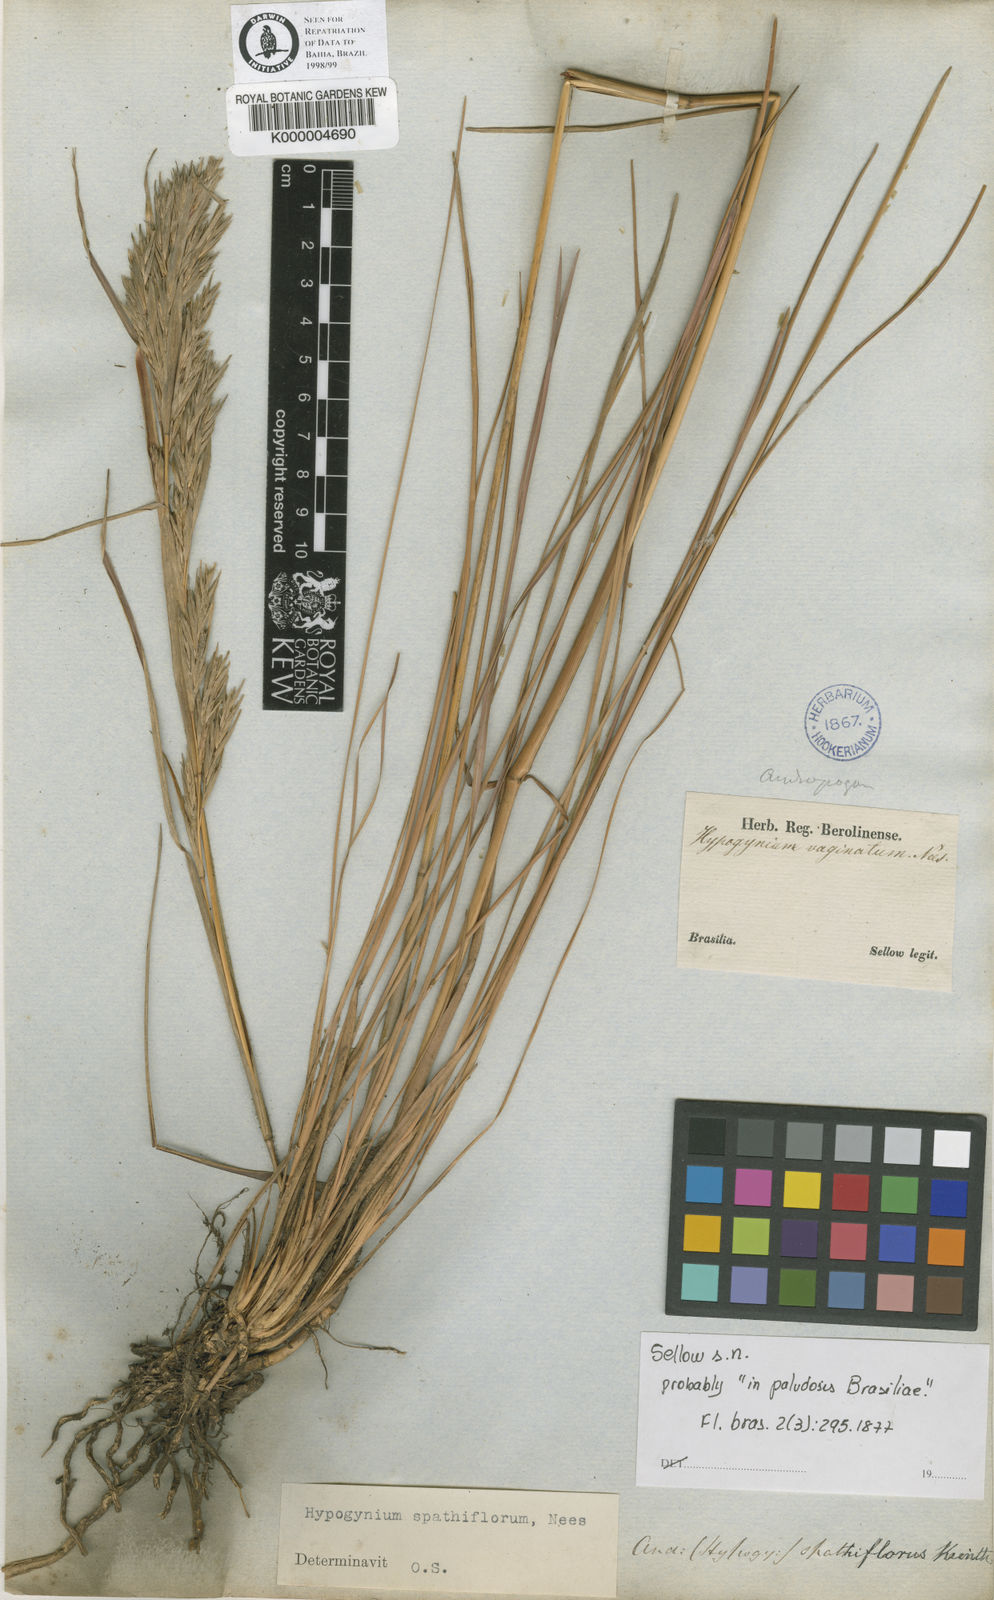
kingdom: Plantae
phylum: Tracheophyta
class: Liliopsida
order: Poales
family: Poaceae
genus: Andropogon
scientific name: Andropogon virgatus
